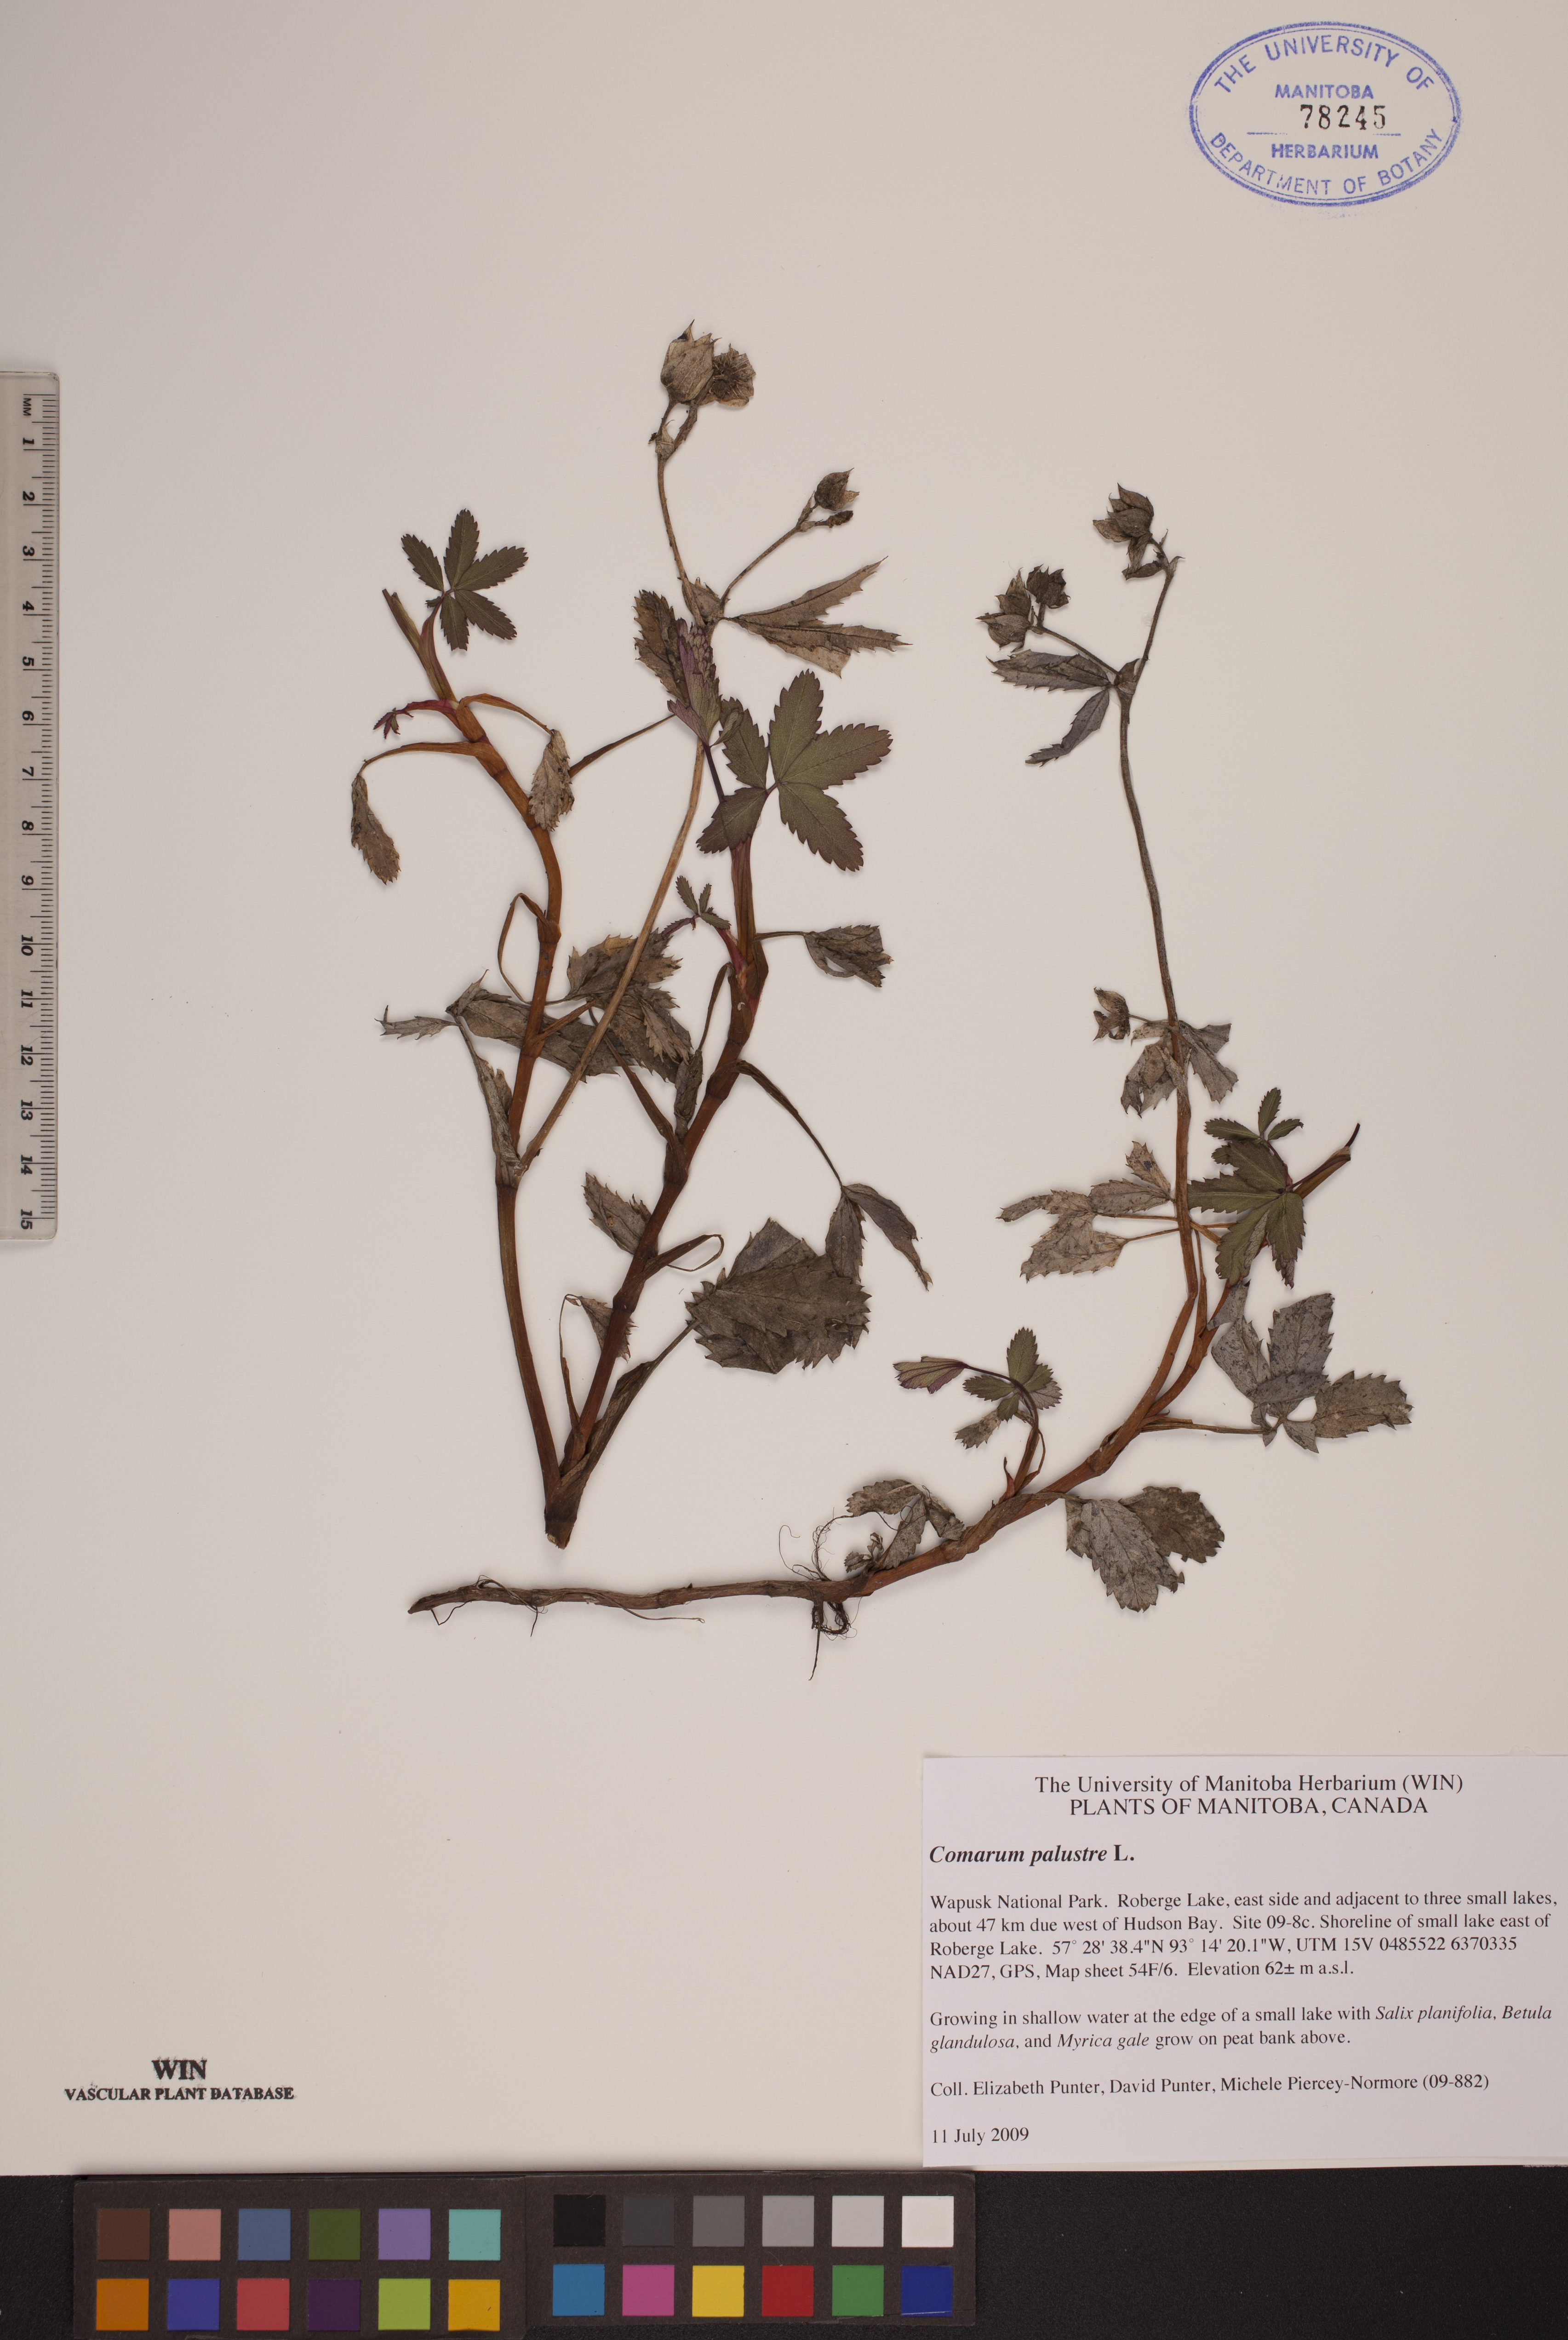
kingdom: Plantae
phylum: Tracheophyta
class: Magnoliopsida
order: Rosales
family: Rosaceae
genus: Comarum
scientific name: Comarum palustre
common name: Marsh cinquefoil
